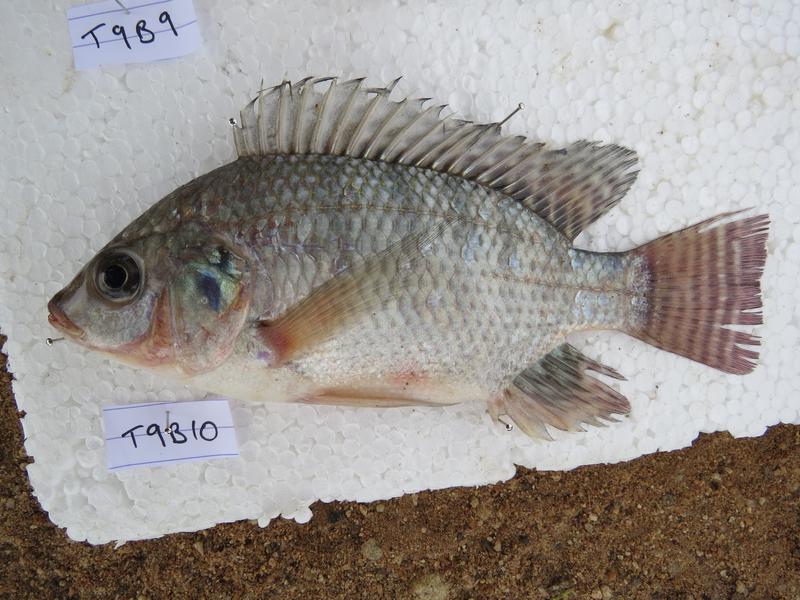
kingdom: Animalia
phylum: Chordata
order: Perciformes
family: Cichlidae
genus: Oreochromis
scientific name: Oreochromis niloticus
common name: Nile tilapia
